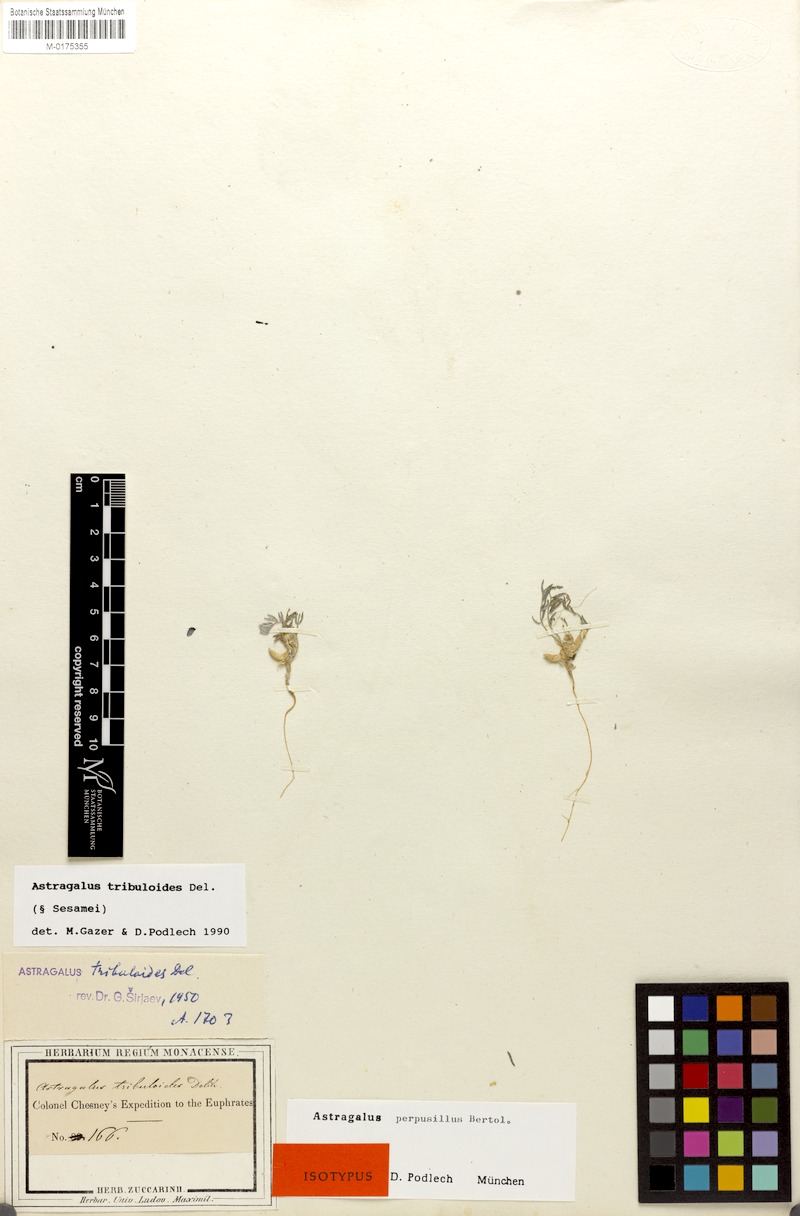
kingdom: Plantae
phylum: Tracheophyta
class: Magnoliopsida
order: Fabales
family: Fabaceae
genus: Astragalus
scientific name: Astragalus tribuloides
